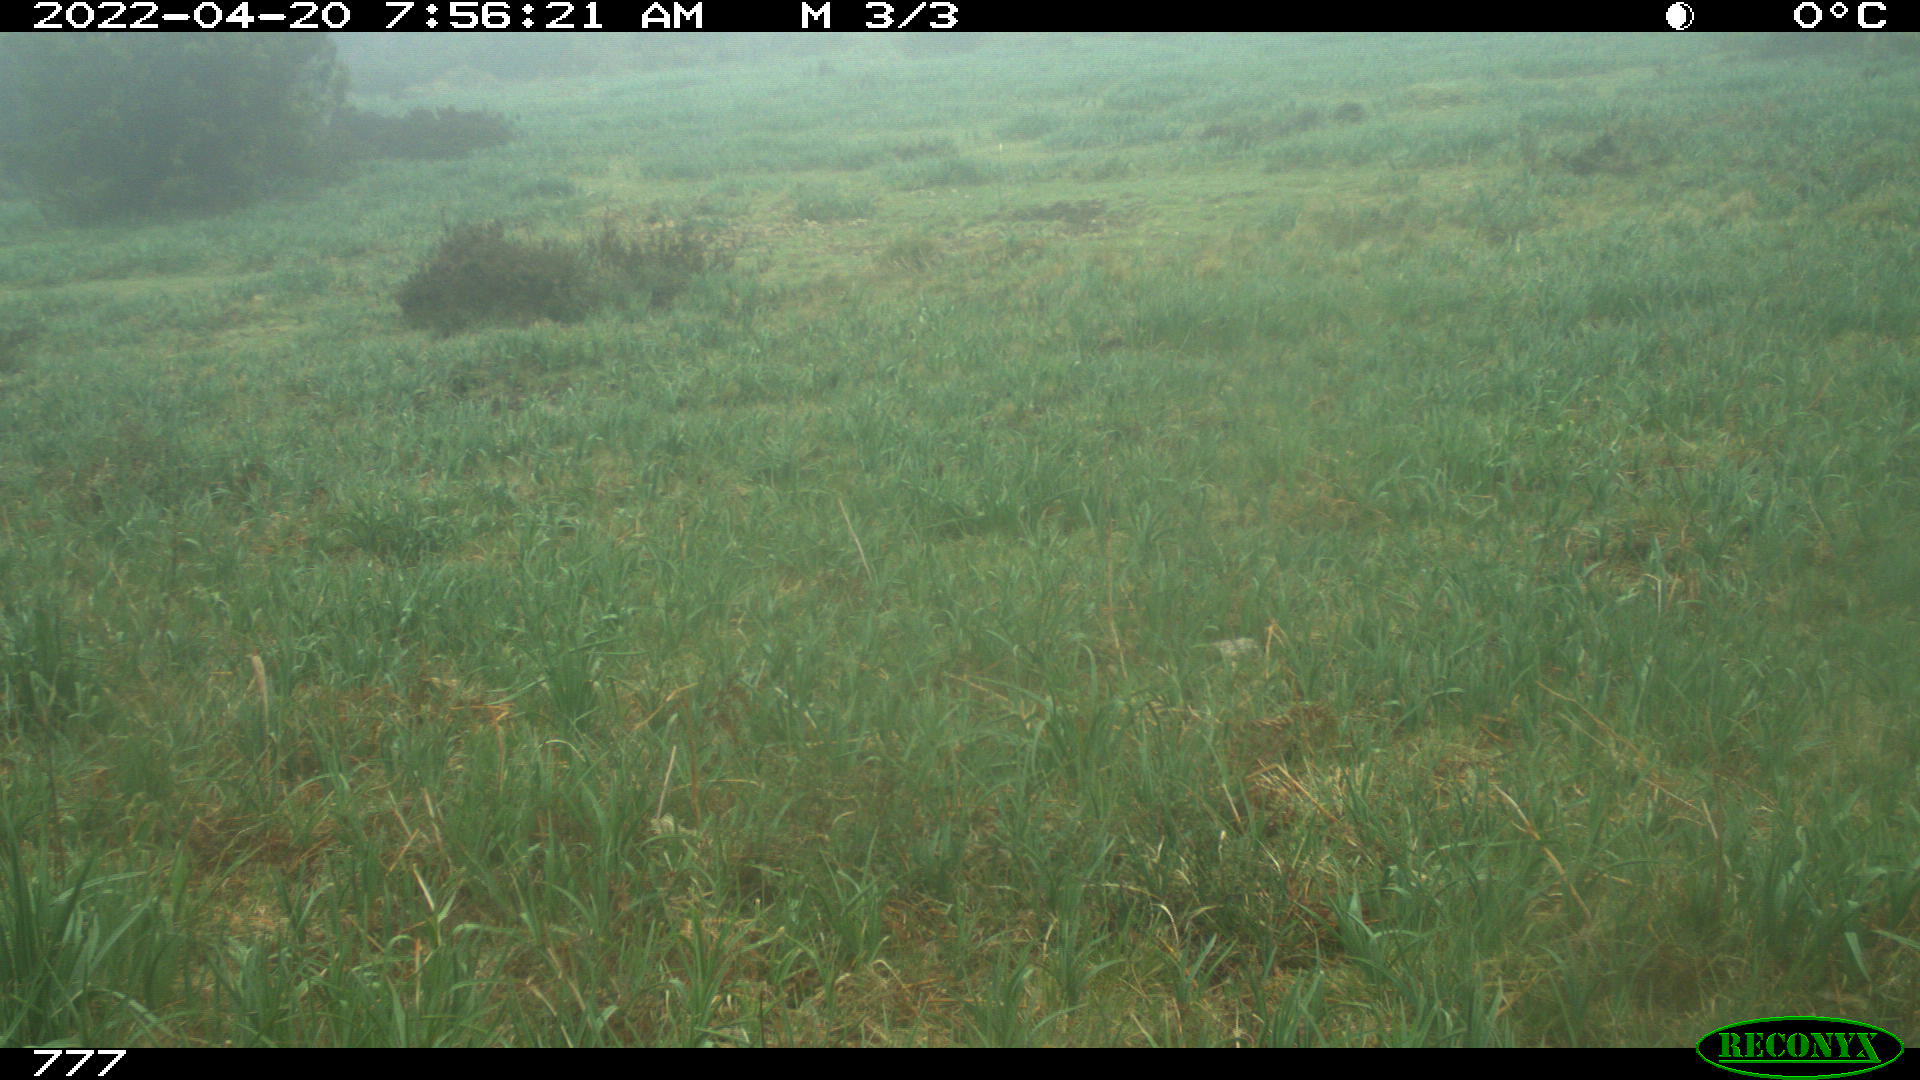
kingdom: Animalia
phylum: Chordata
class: Mammalia
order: Perissodactyla
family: Equidae
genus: Equus
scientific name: Equus caballus
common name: Horse
